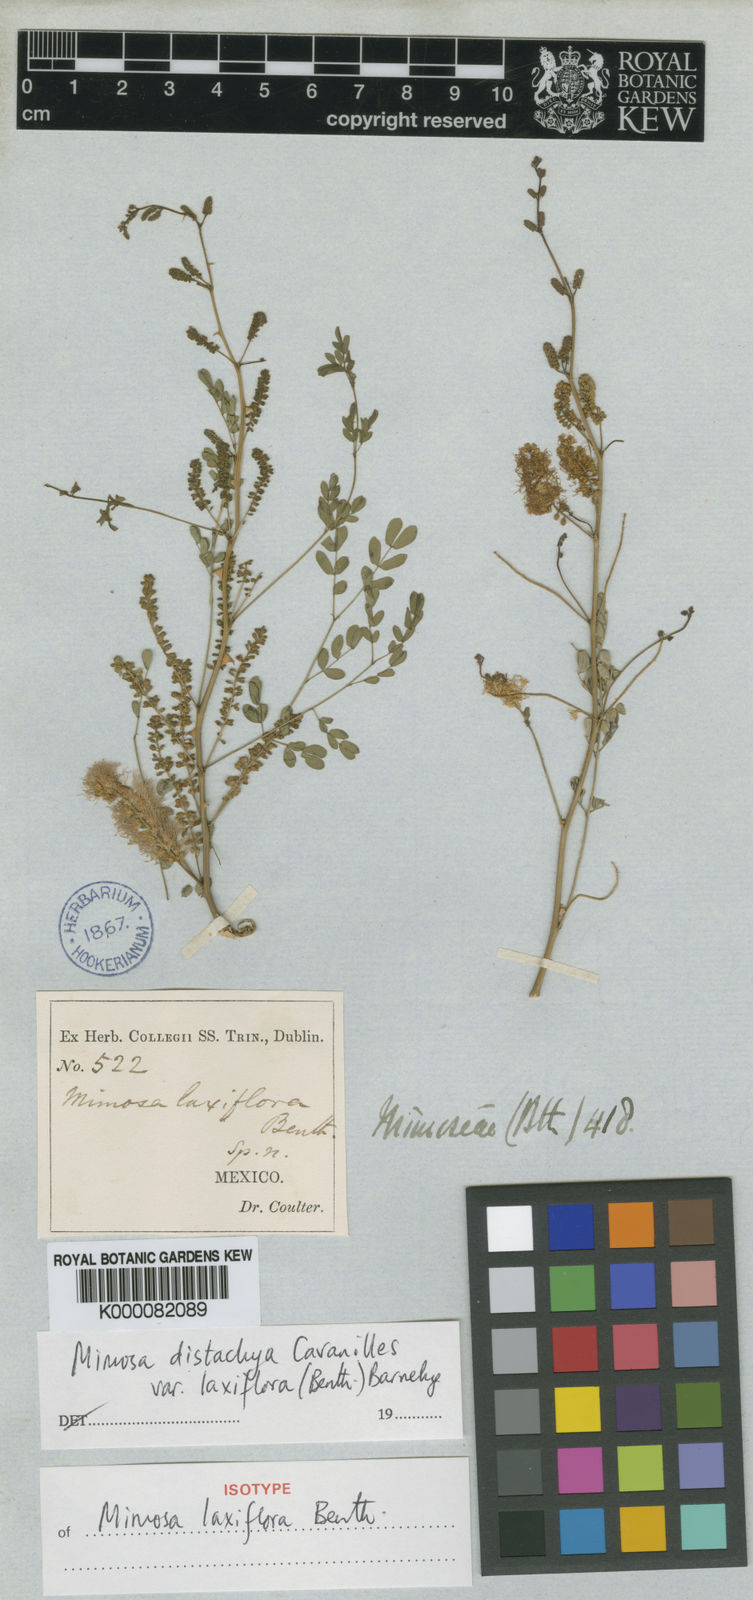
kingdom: Plantae
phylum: Tracheophyta
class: Magnoliopsida
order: Fabales
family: Fabaceae
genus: Mimosa
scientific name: Mimosa distachya
